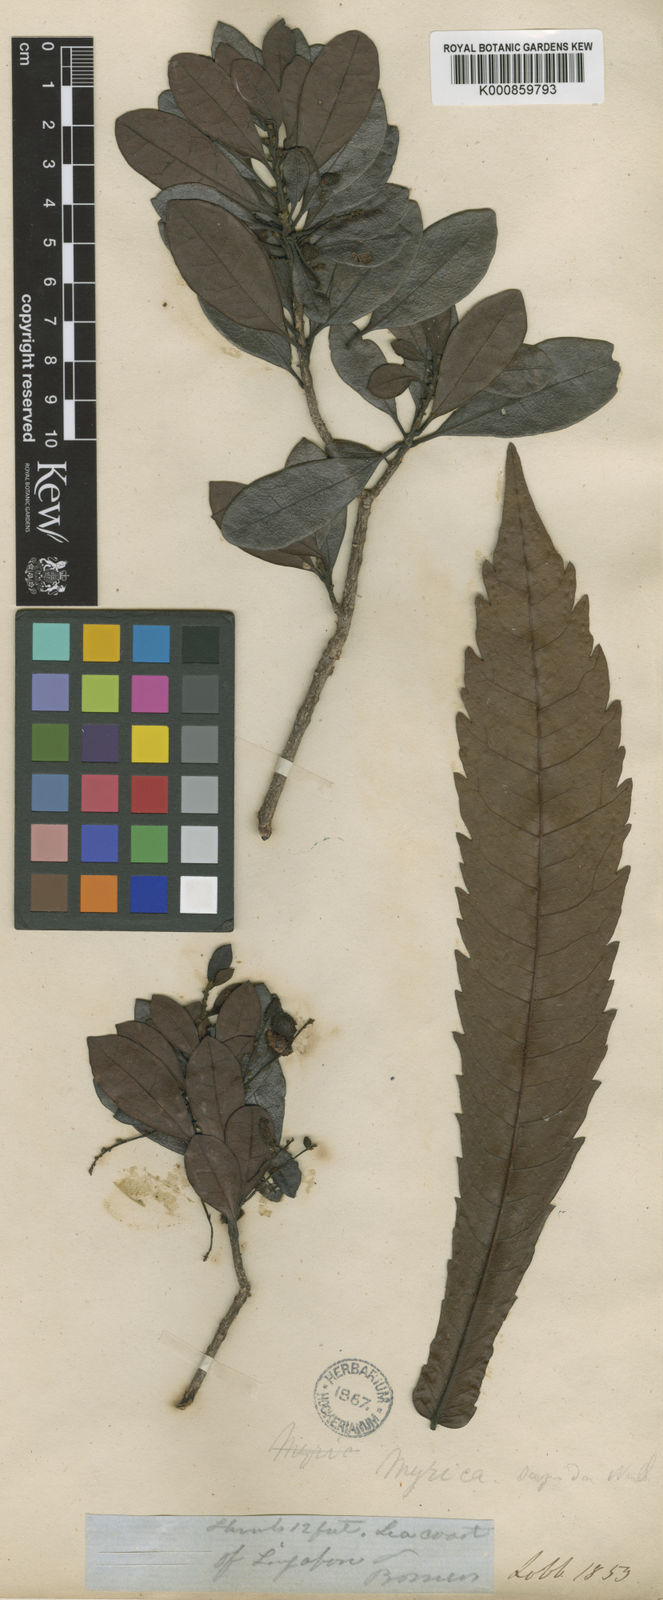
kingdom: Plantae
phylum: Tracheophyta
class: Magnoliopsida
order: Fagales
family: Myricaceae
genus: Morella
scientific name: Morella esculenta
